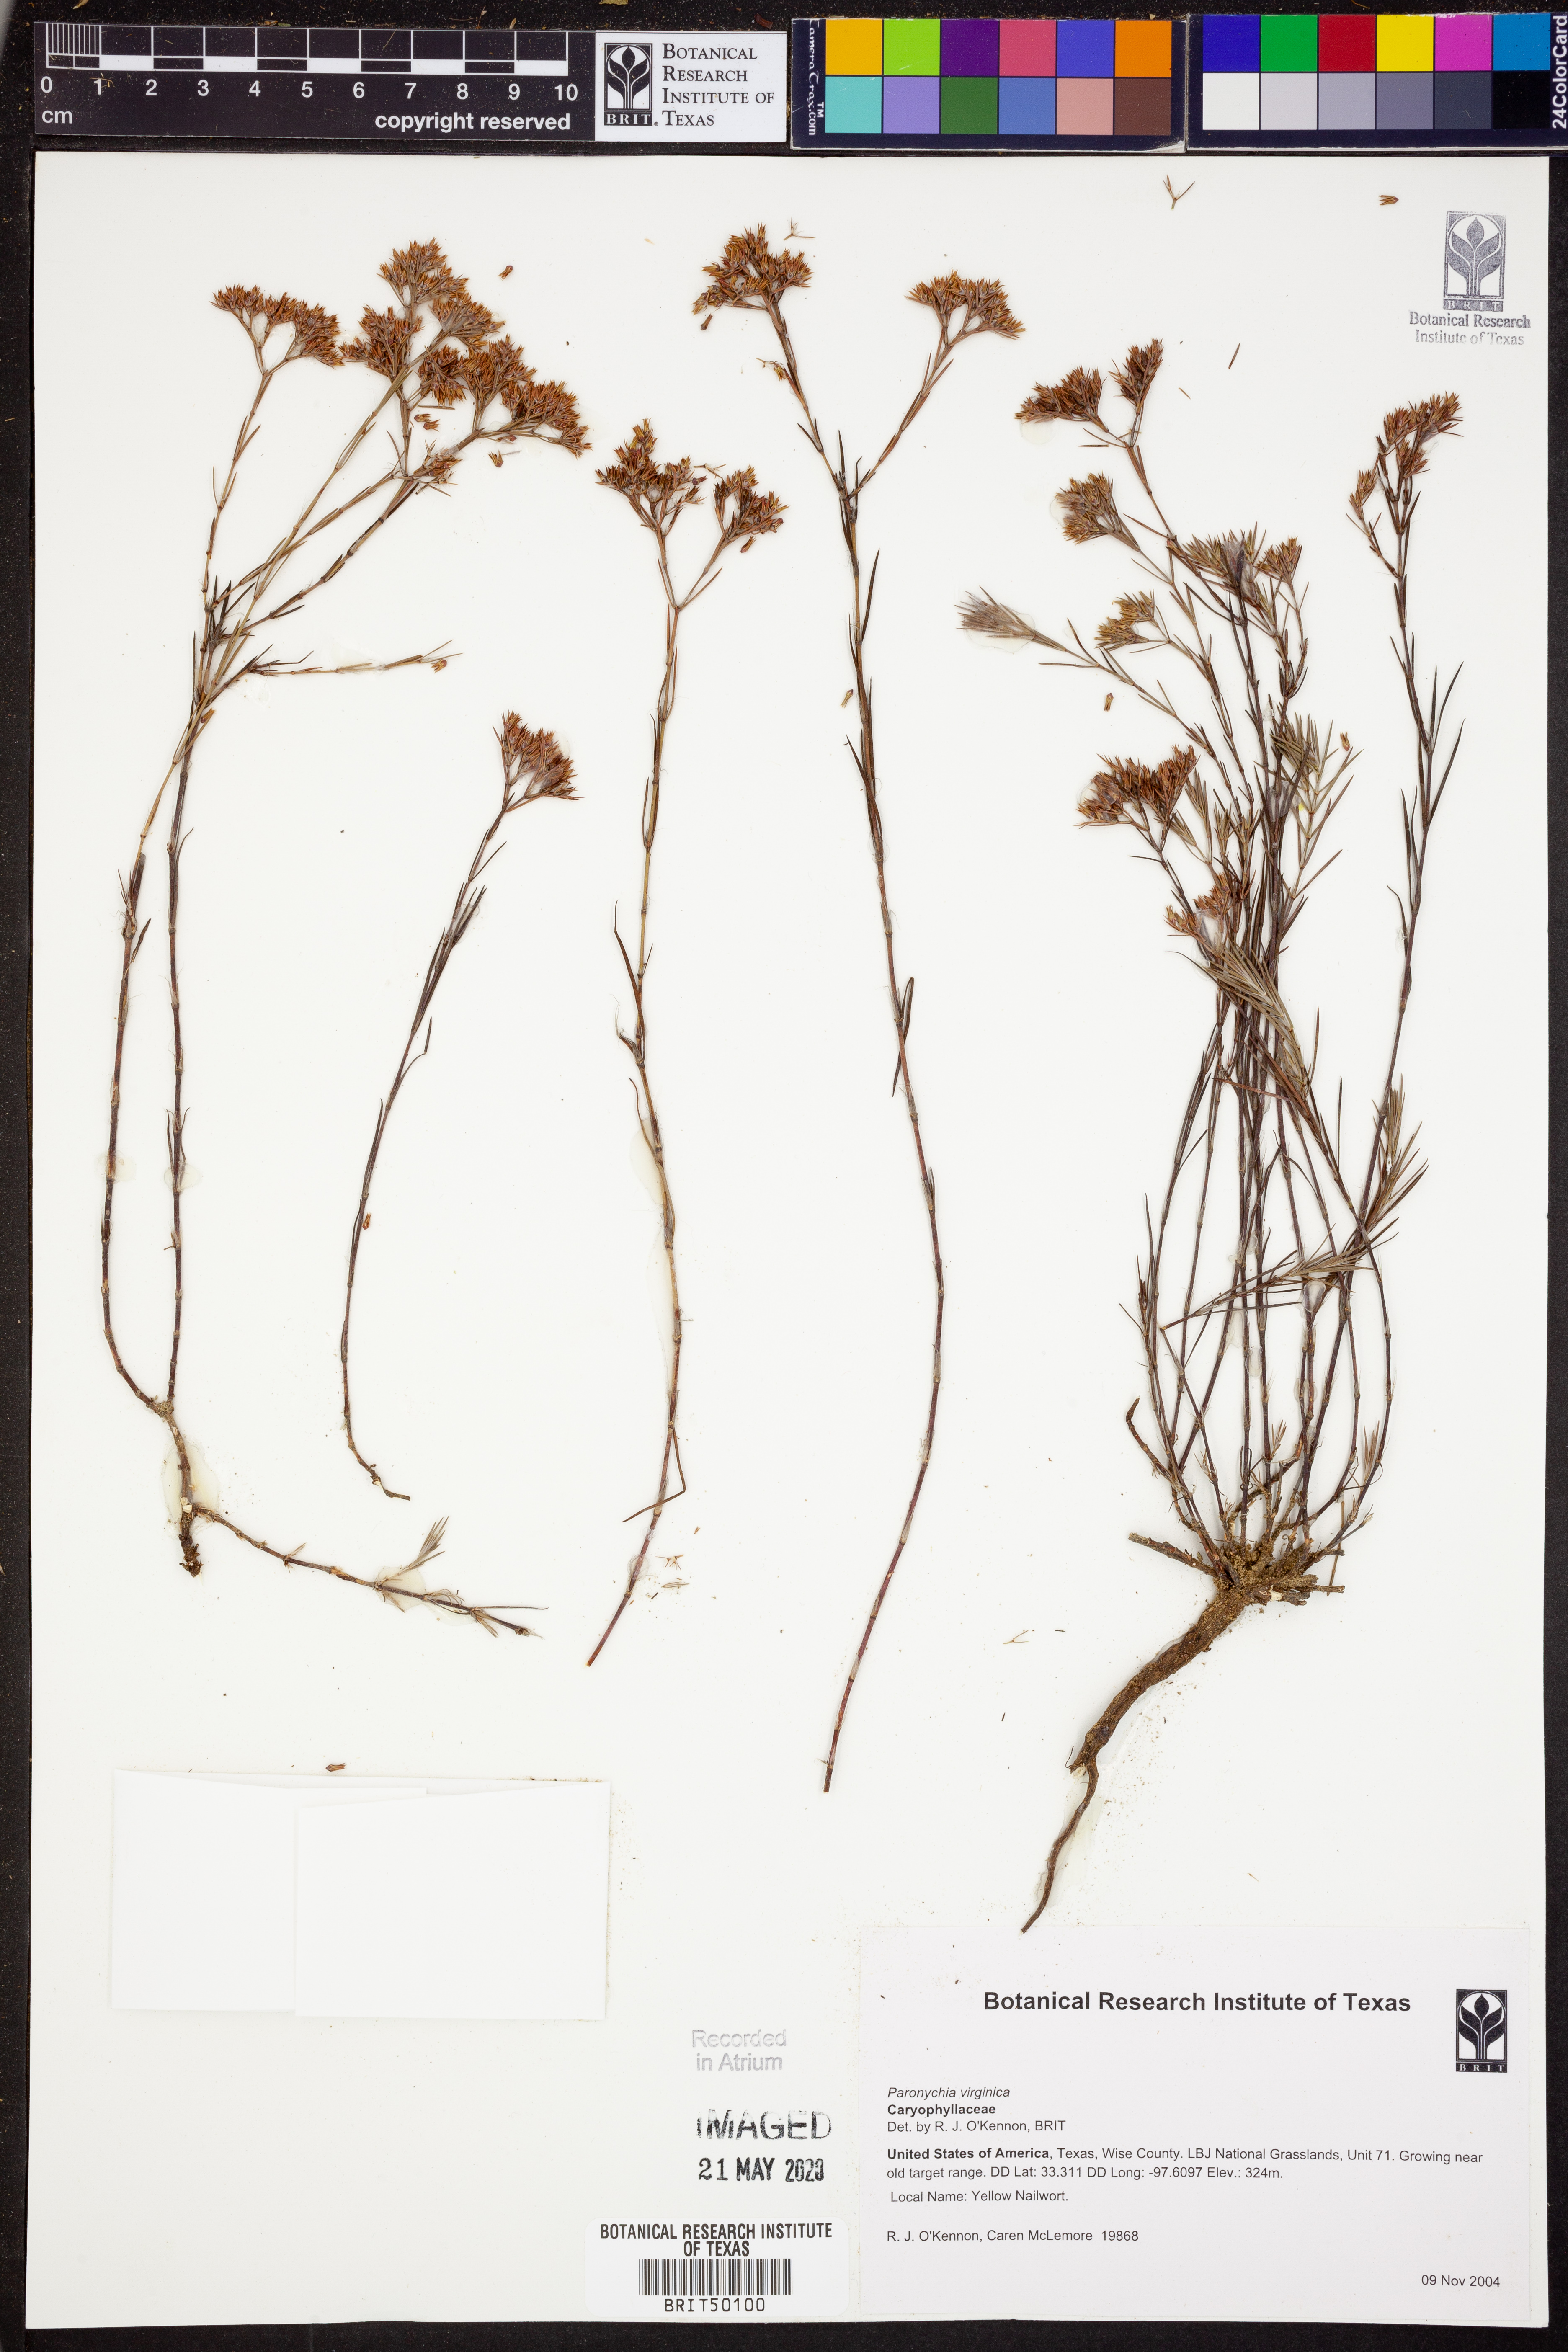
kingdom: Plantae
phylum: Tracheophyta
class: Magnoliopsida
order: Caryophyllales
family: Caryophyllaceae
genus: Paronychia
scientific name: Paronychia virginica
